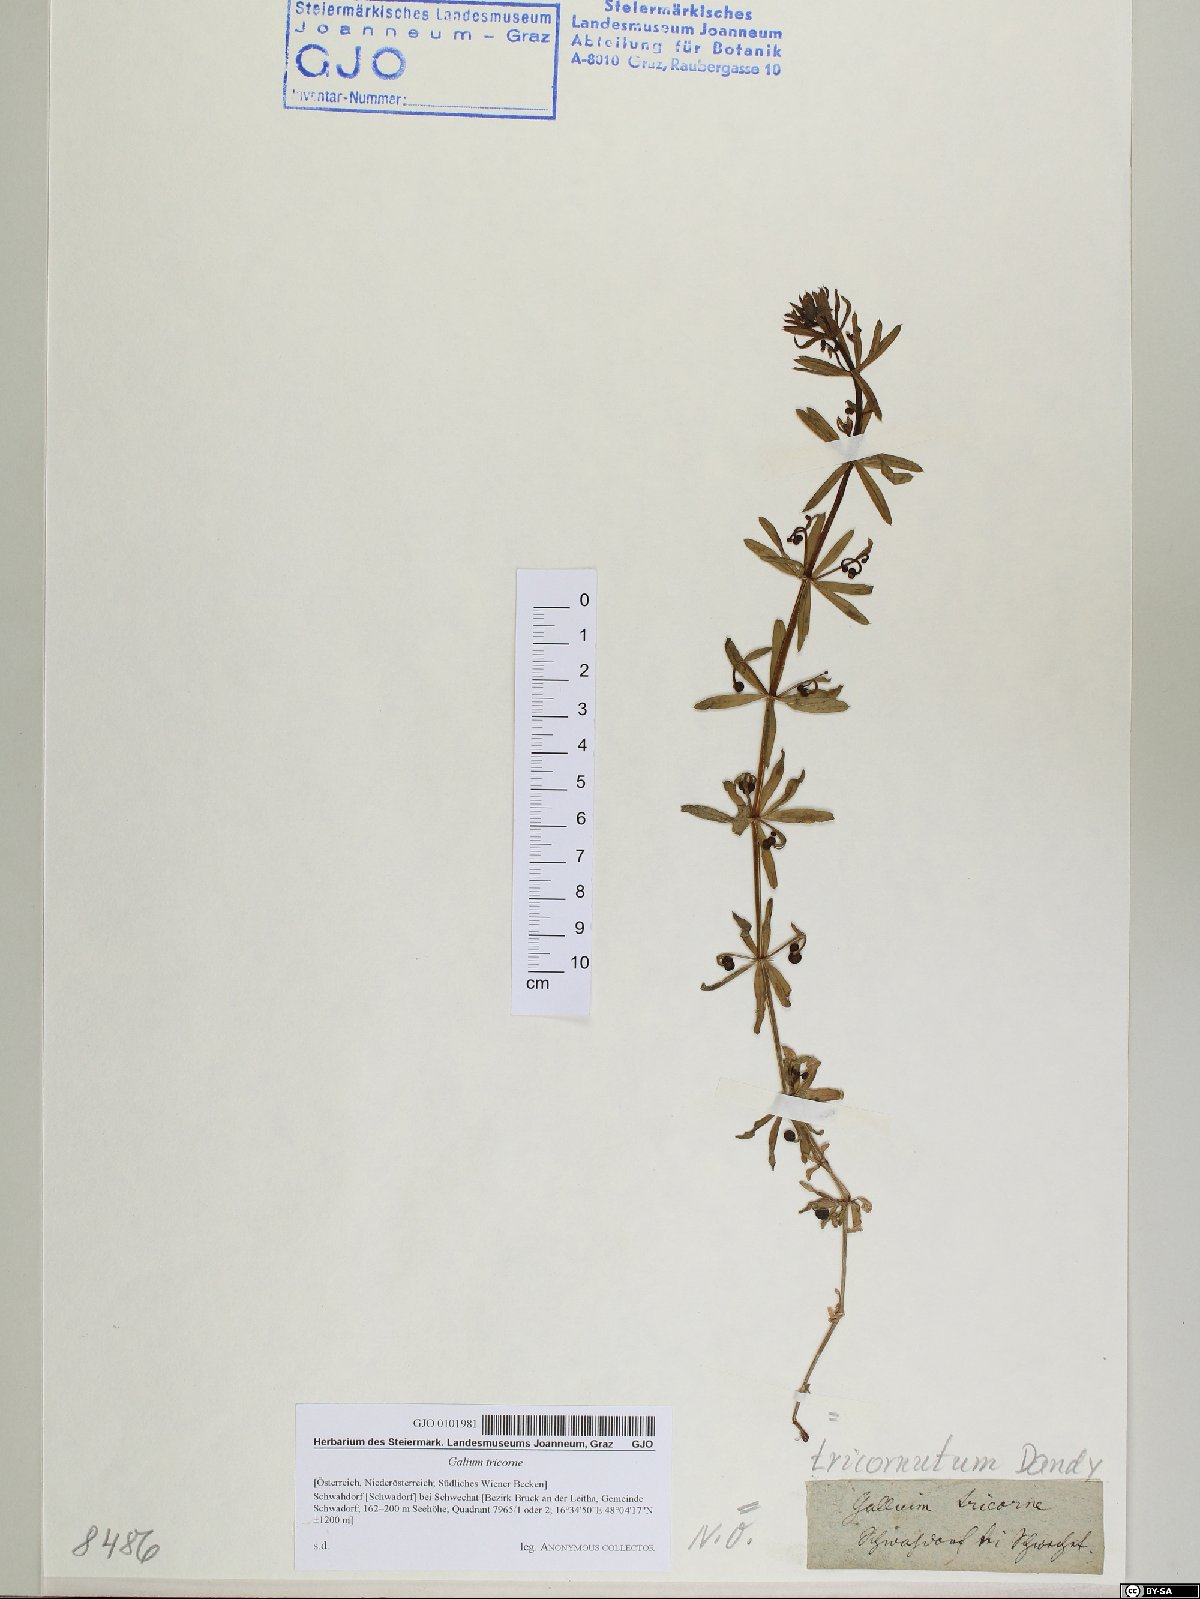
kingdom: Plantae
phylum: Tracheophyta
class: Magnoliopsida
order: Gentianales
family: Rubiaceae
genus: Galium
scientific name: Galium verrucosum
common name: Warty bedstraw
